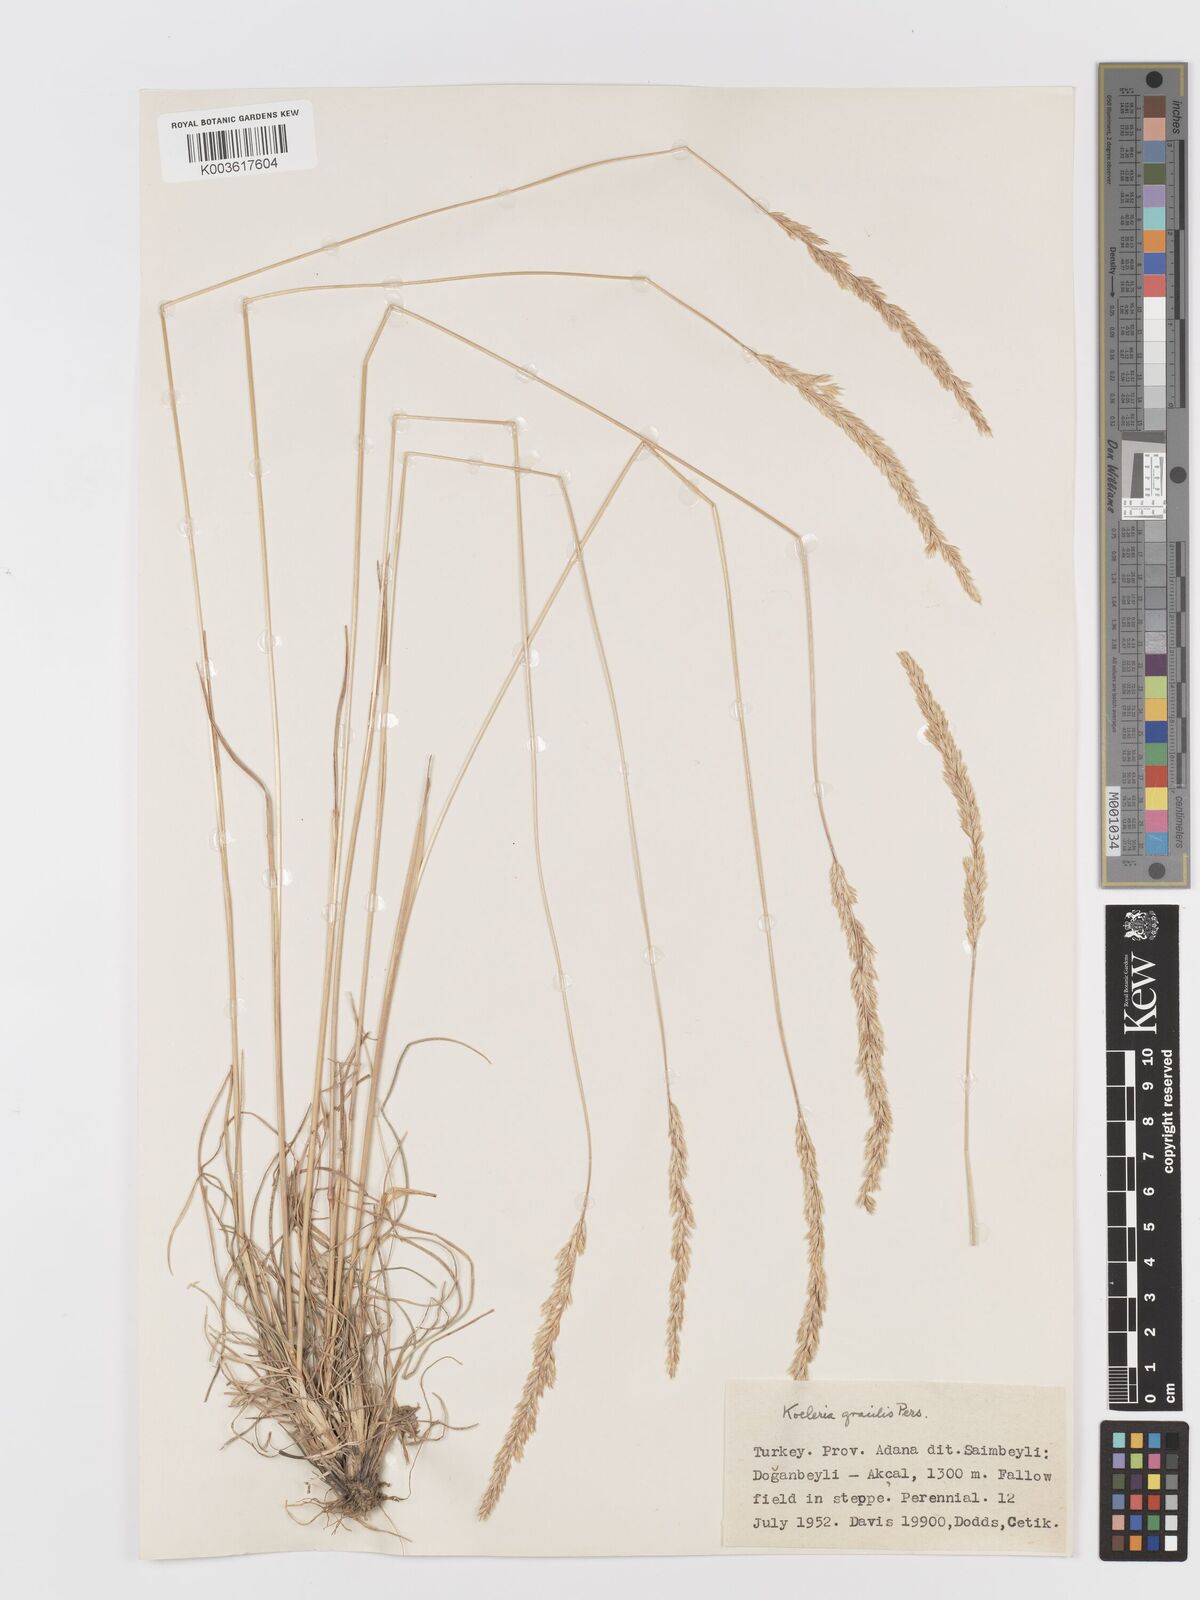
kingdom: Plantae
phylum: Tracheophyta
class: Liliopsida
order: Poales
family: Poaceae
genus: Koeleria
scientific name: Koeleria macrantha
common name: Crested hair-grass
